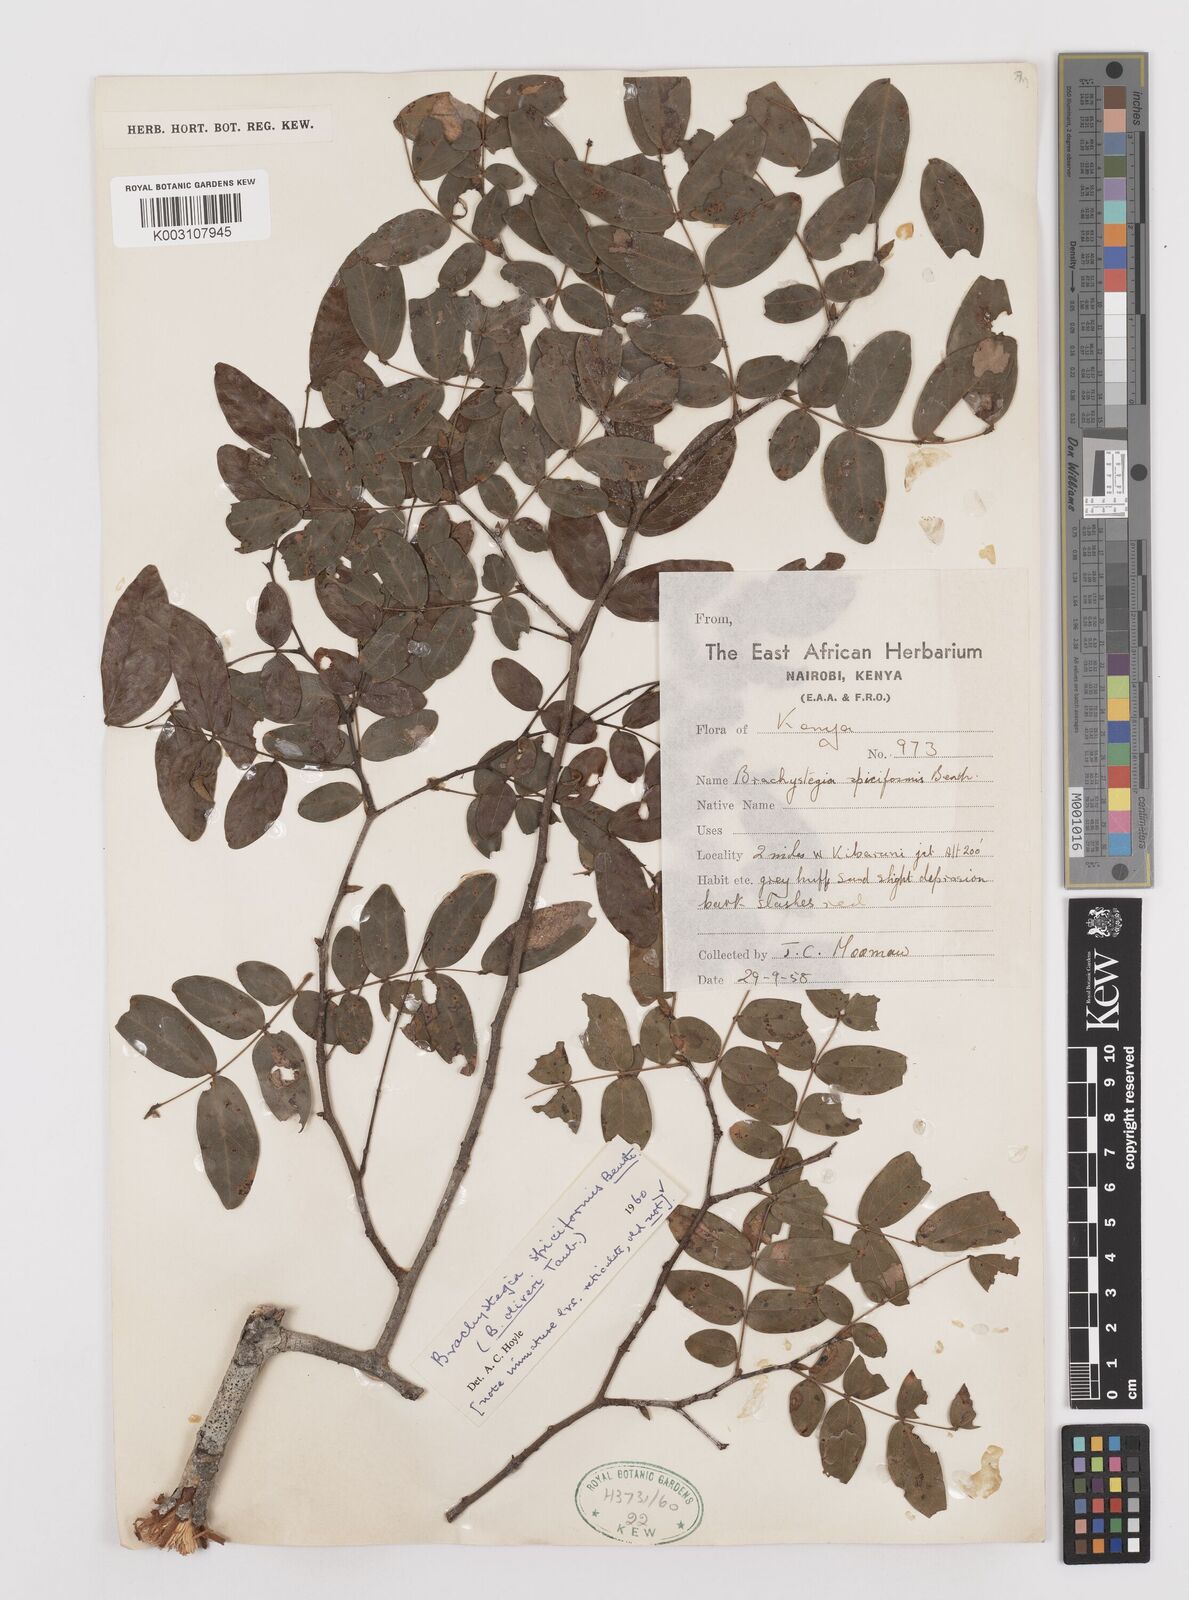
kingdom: Plantae
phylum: Tracheophyta
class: Magnoliopsida
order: Fabales
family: Fabaceae
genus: Brachystegia
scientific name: Brachystegia spiciformis
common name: Zebrawood
